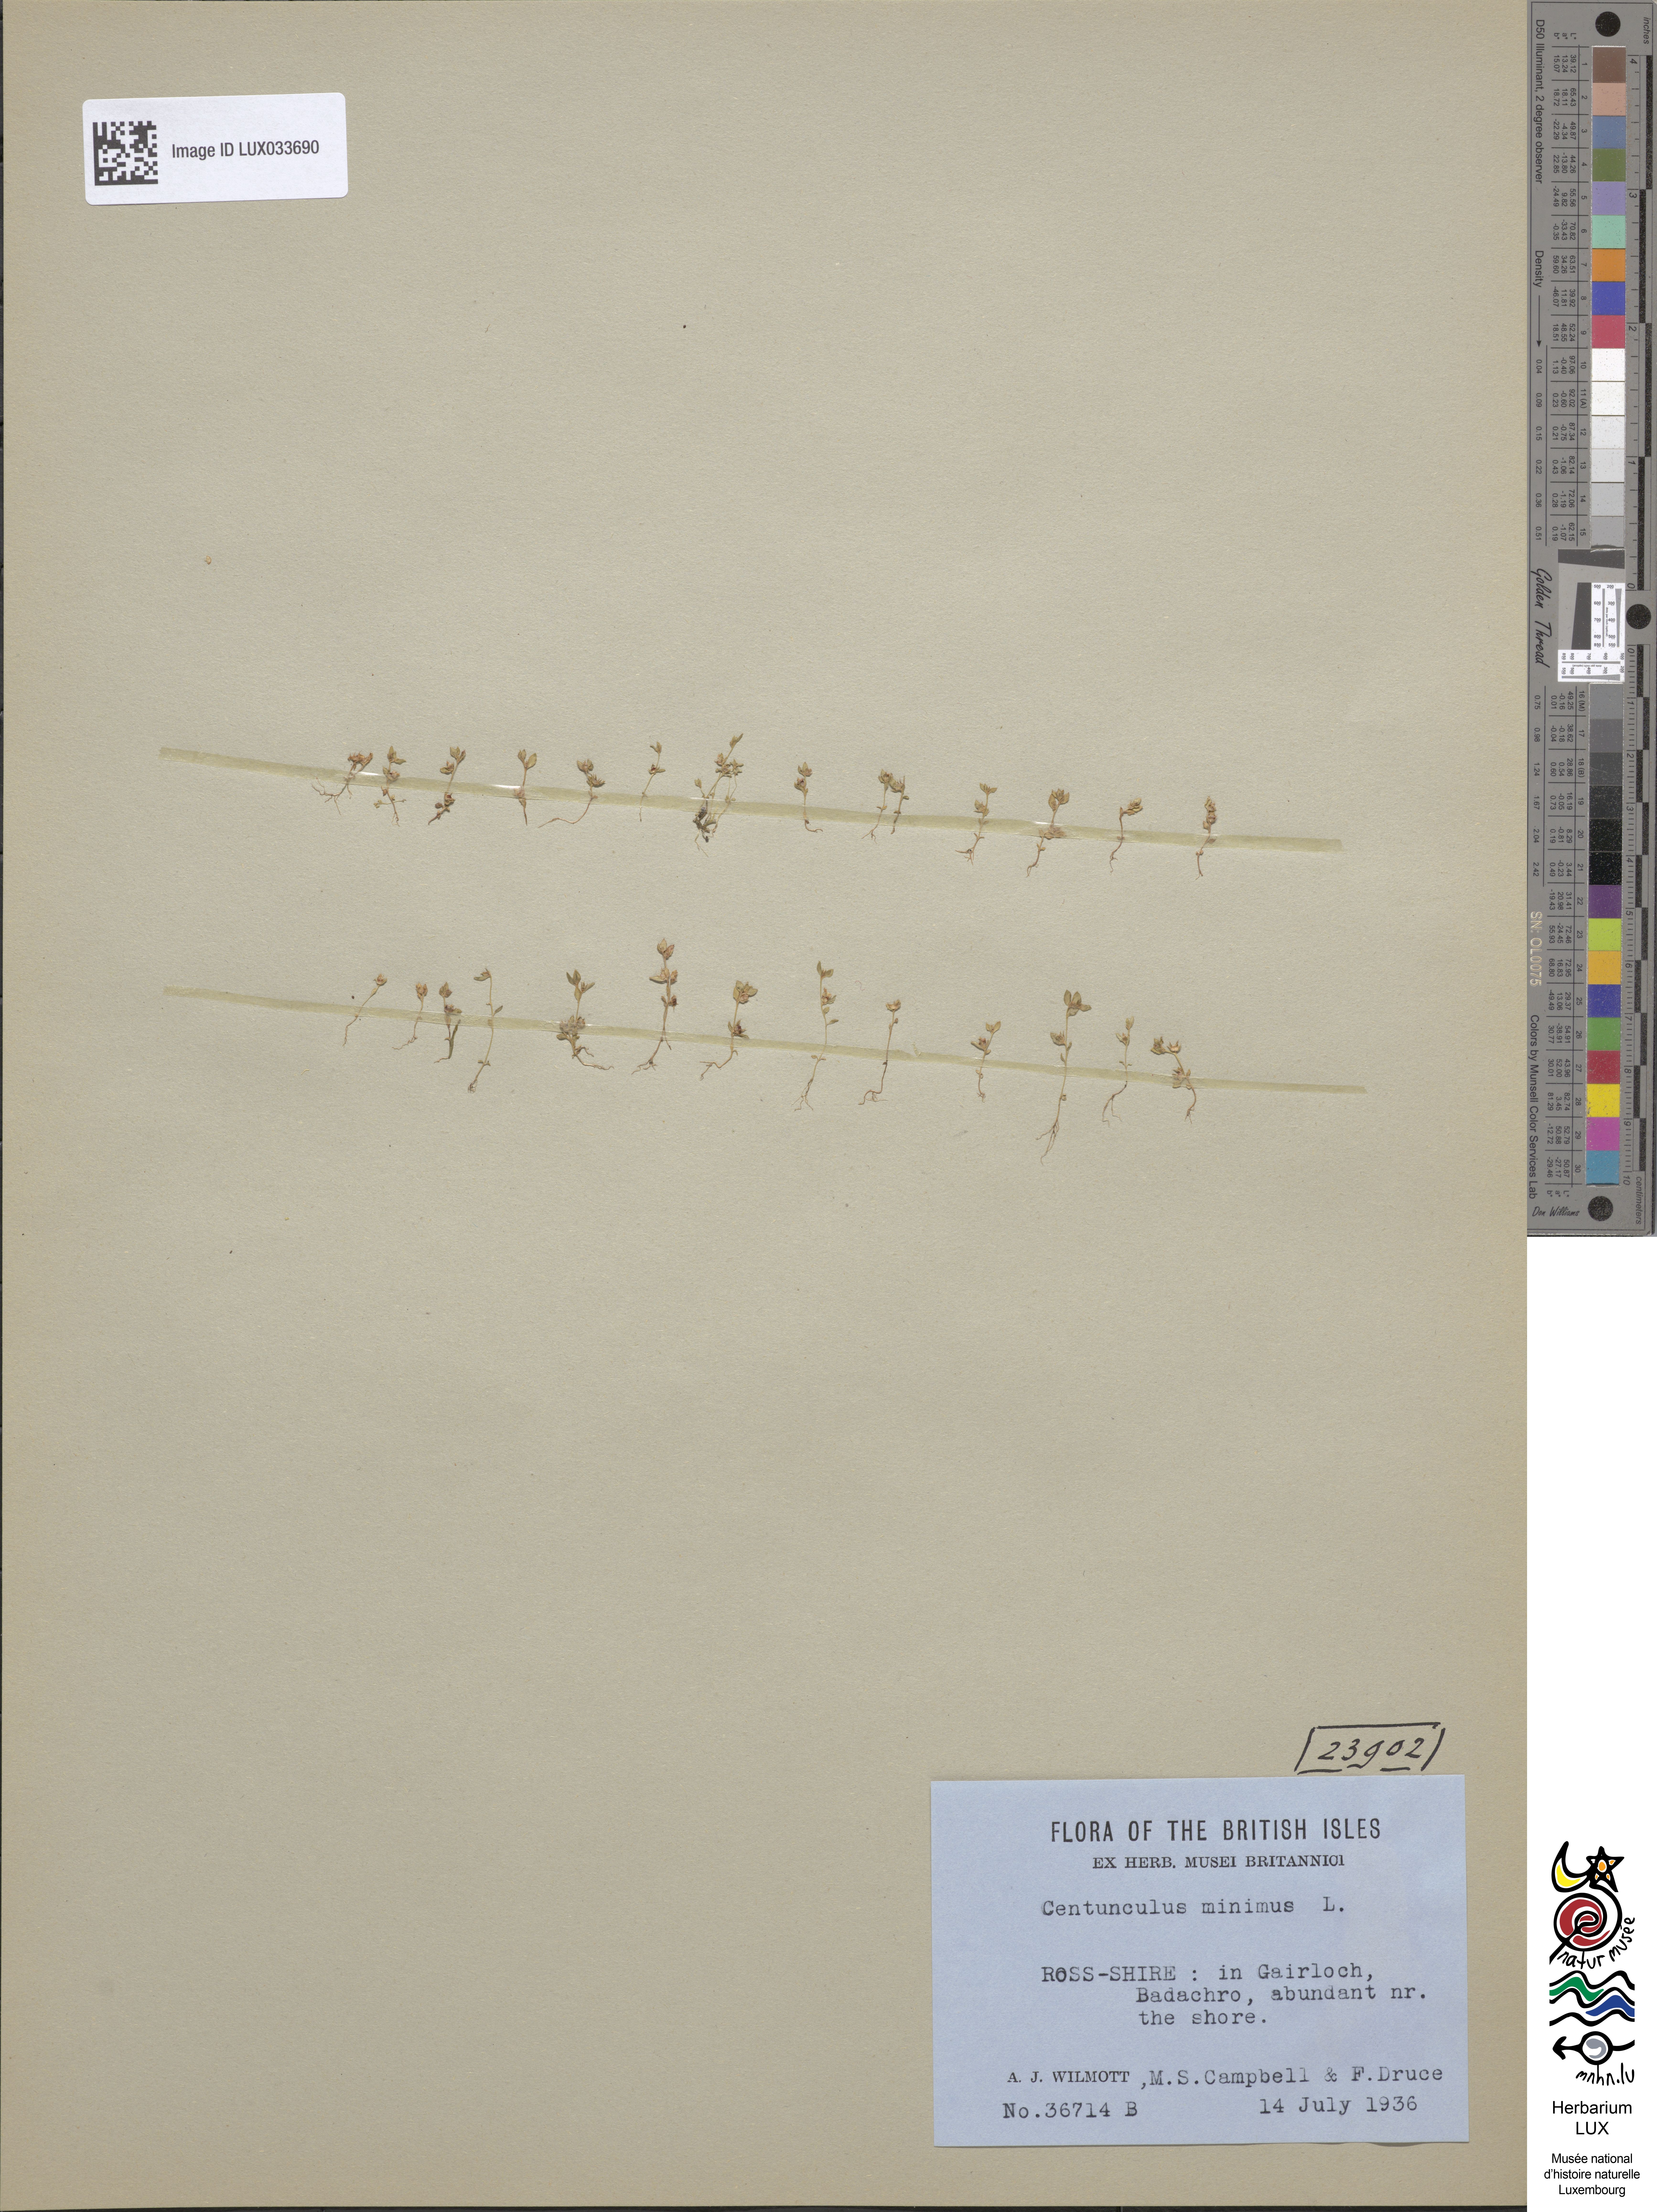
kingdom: Plantae
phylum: Tracheophyta
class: Magnoliopsida
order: Ericales
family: Primulaceae
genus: Lysimachia
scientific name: Lysimachia minima
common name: Chaffweed
